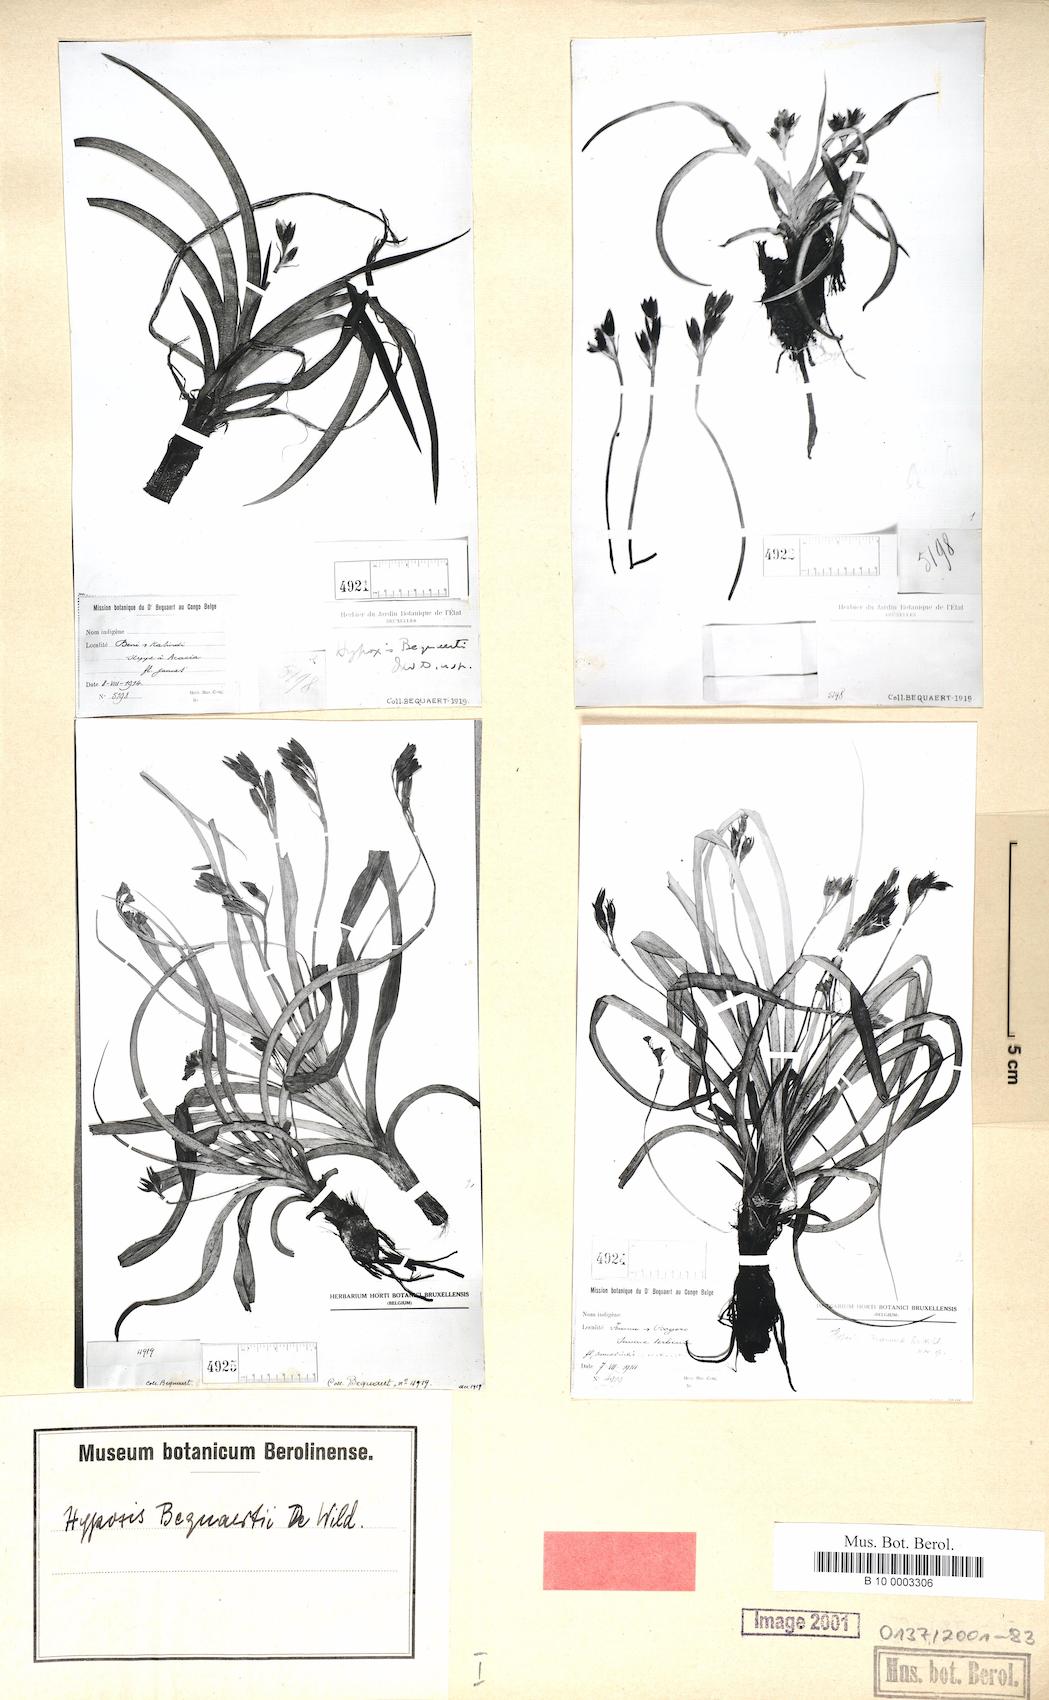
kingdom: Plantae
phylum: Tracheophyta
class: Liliopsida
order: Asparagales
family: Hypoxidaceae
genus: Hypoxis
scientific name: Hypoxis urceolata
